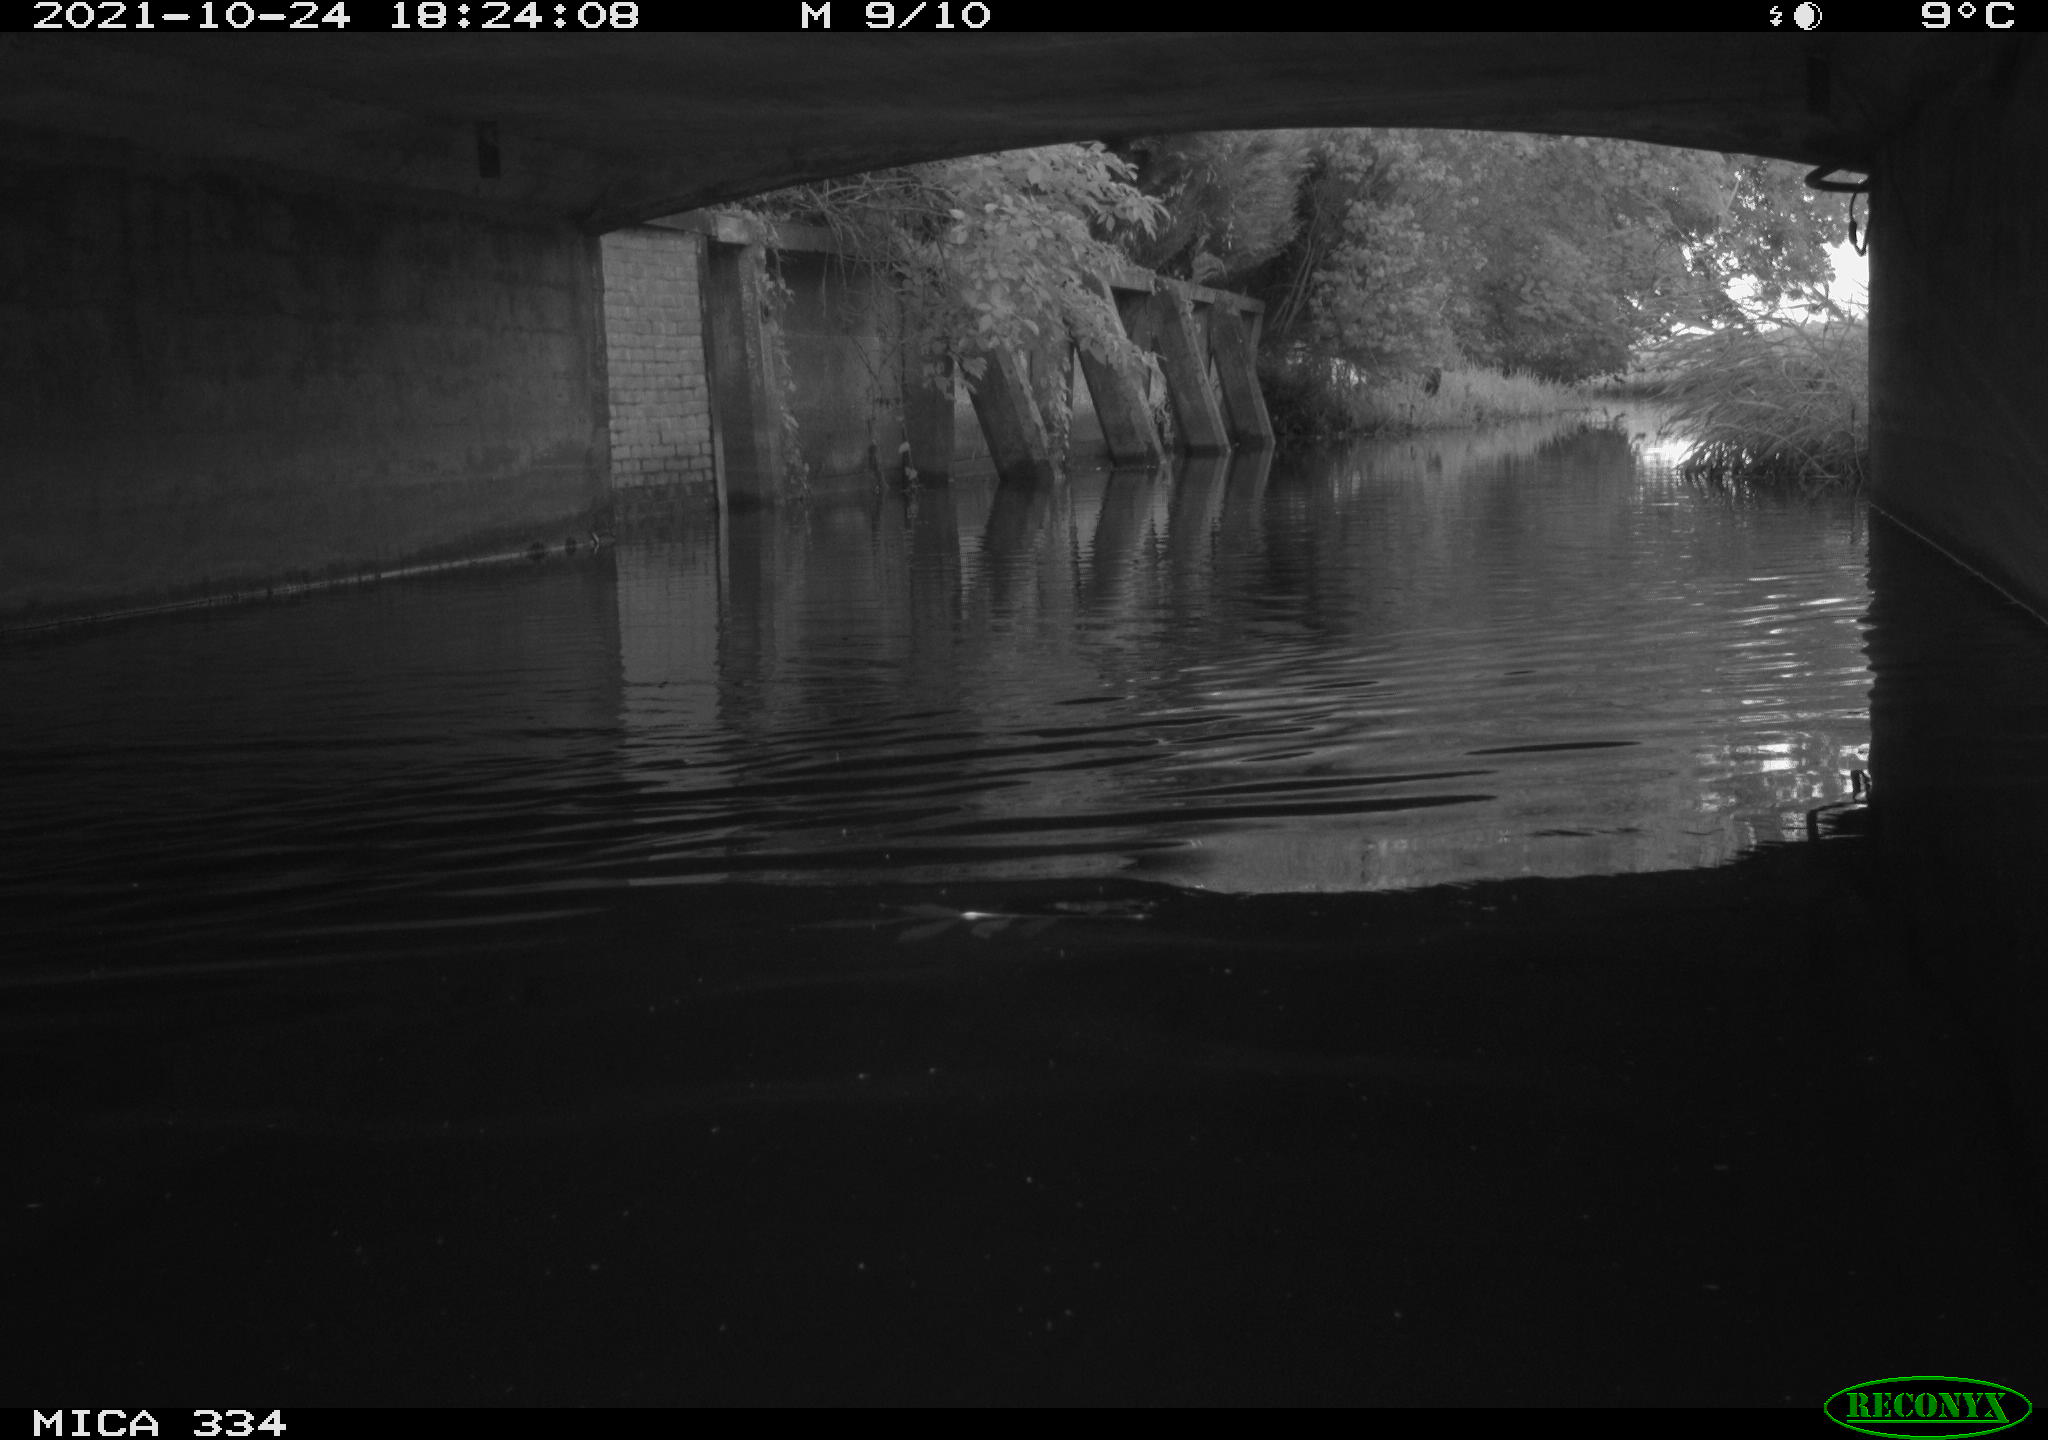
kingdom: Animalia
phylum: Chordata
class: Aves
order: Anseriformes
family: Anatidae
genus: Anas
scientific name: Anas platyrhynchos
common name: Mallard
